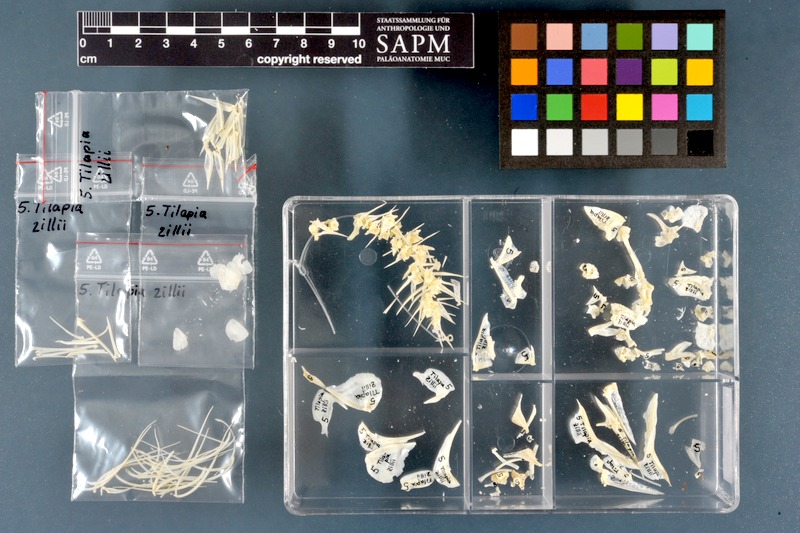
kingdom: Animalia
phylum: Chordata
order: Perciformes
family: Cichlidae
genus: Coptodon
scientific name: Coptodon zillii
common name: Redbelly tilapia
